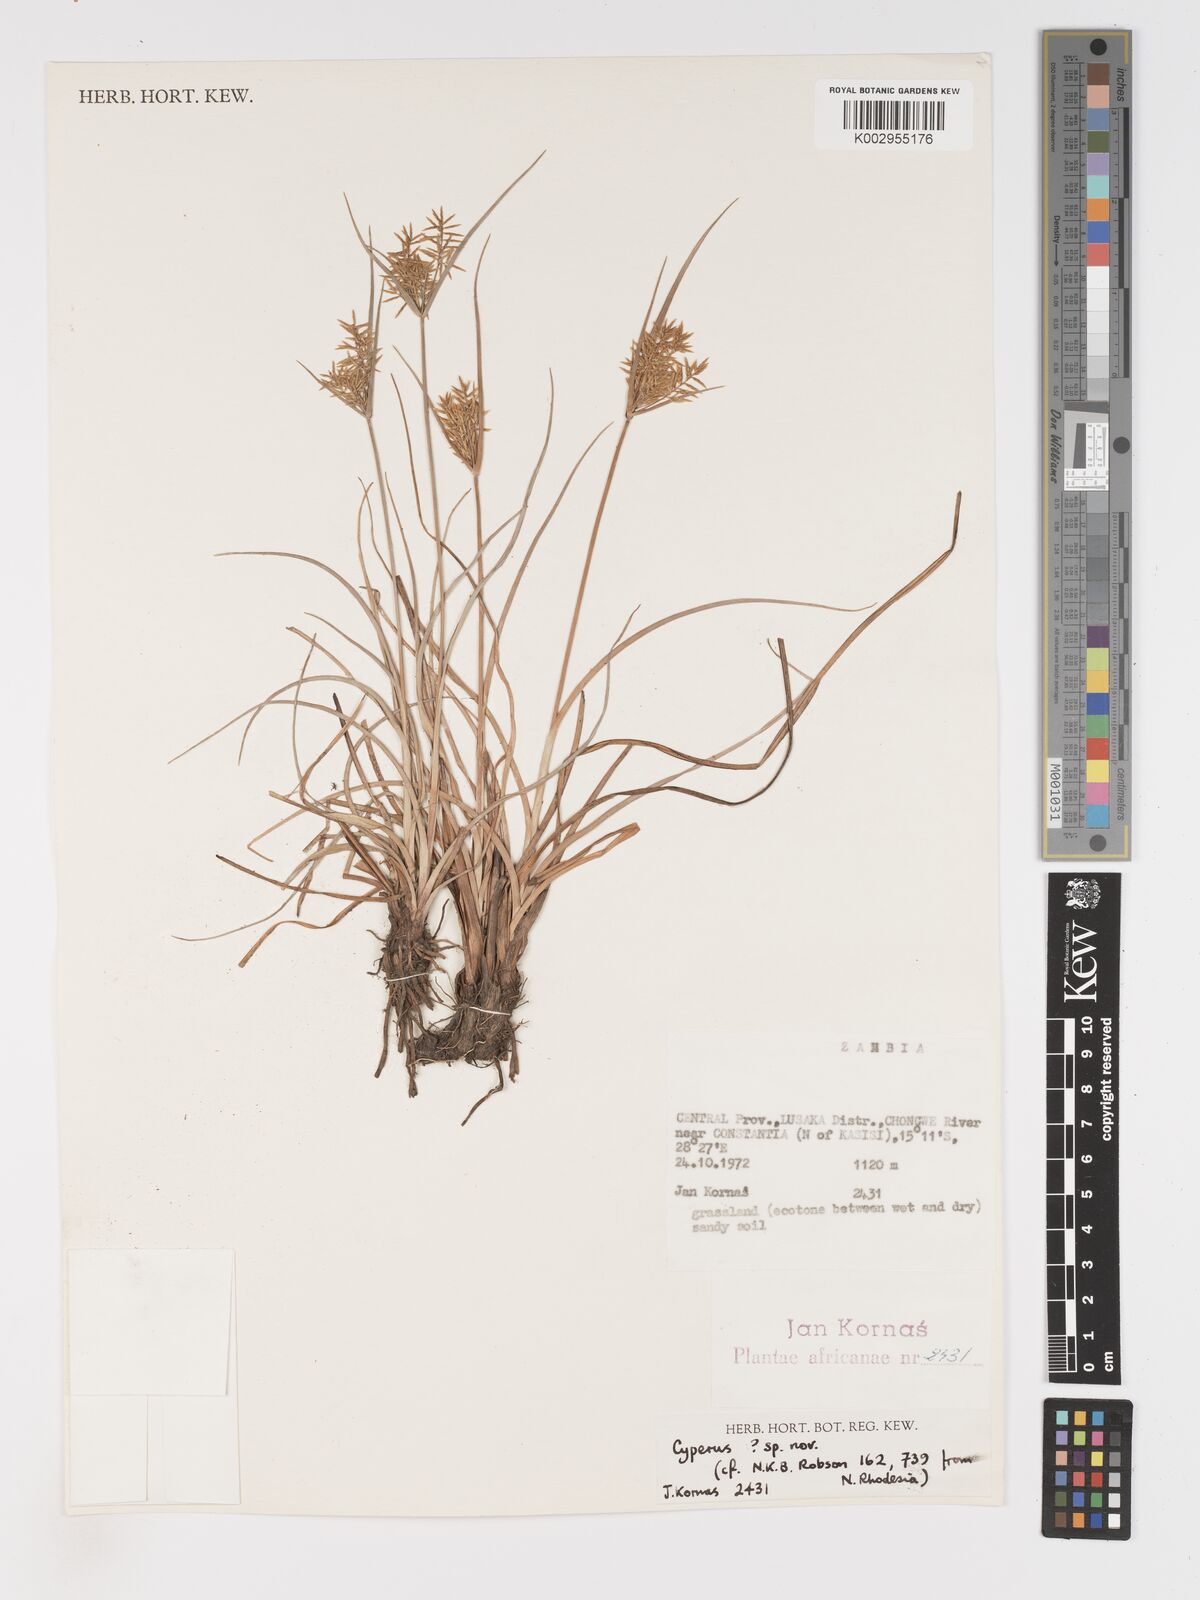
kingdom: Plantae
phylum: Tracheophyta
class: Liliopsida
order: Poales
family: Cyperaceae
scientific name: Cyperaceae
